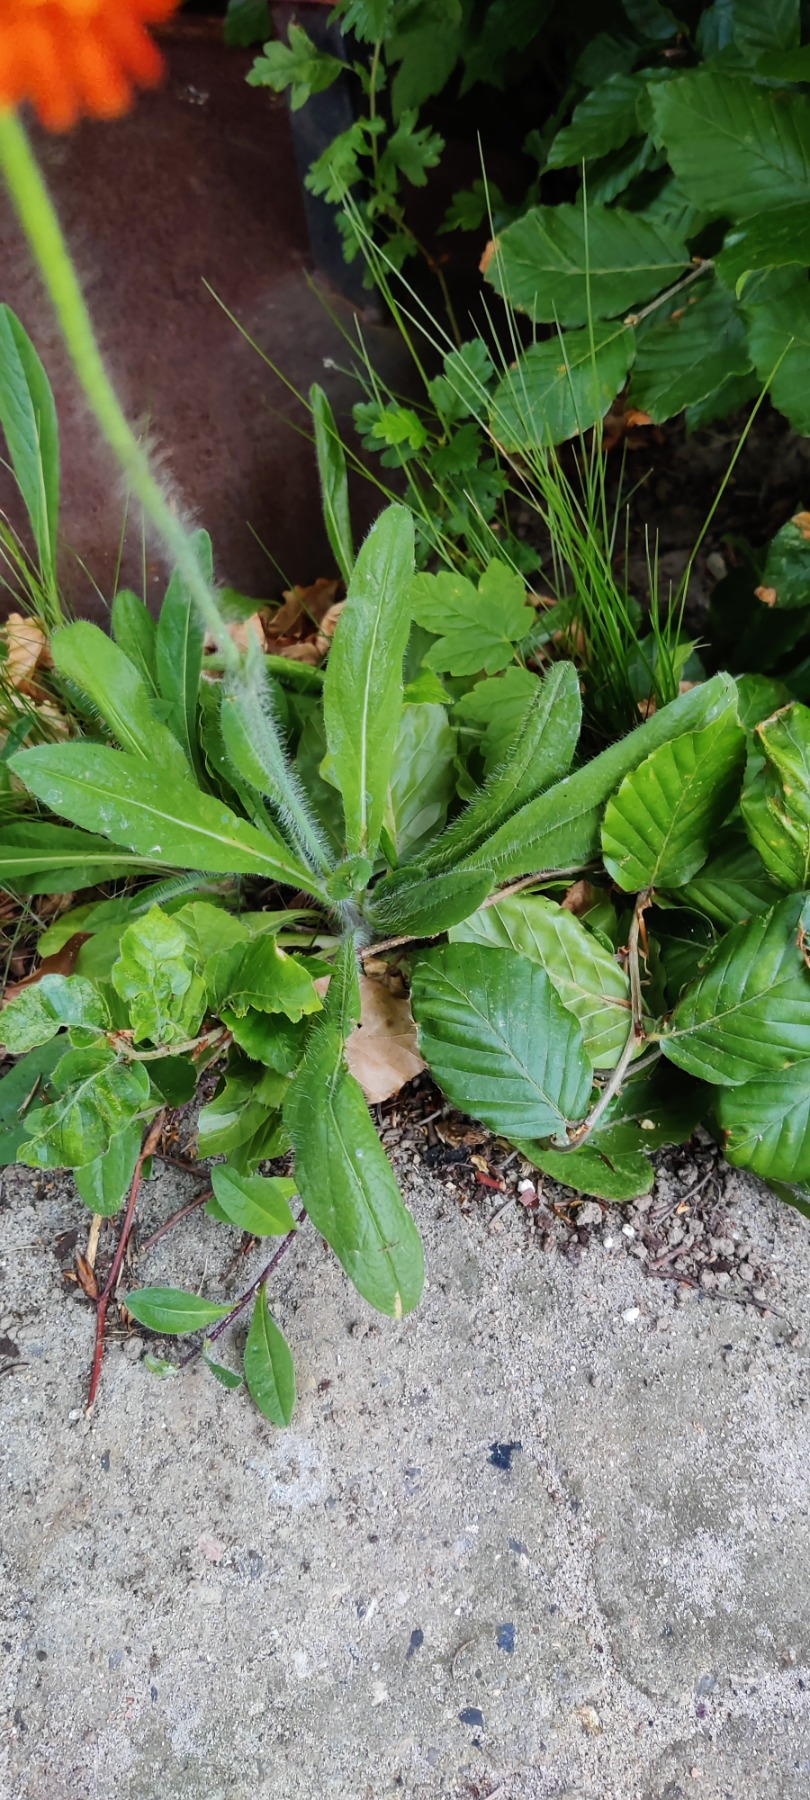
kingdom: Plantae
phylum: Tracheophyta
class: Magnoliopsida
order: Asterales
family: Asteraceae
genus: Pilosella
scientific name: Pilosella aurantiaca
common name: Pomerans-høgeurt
